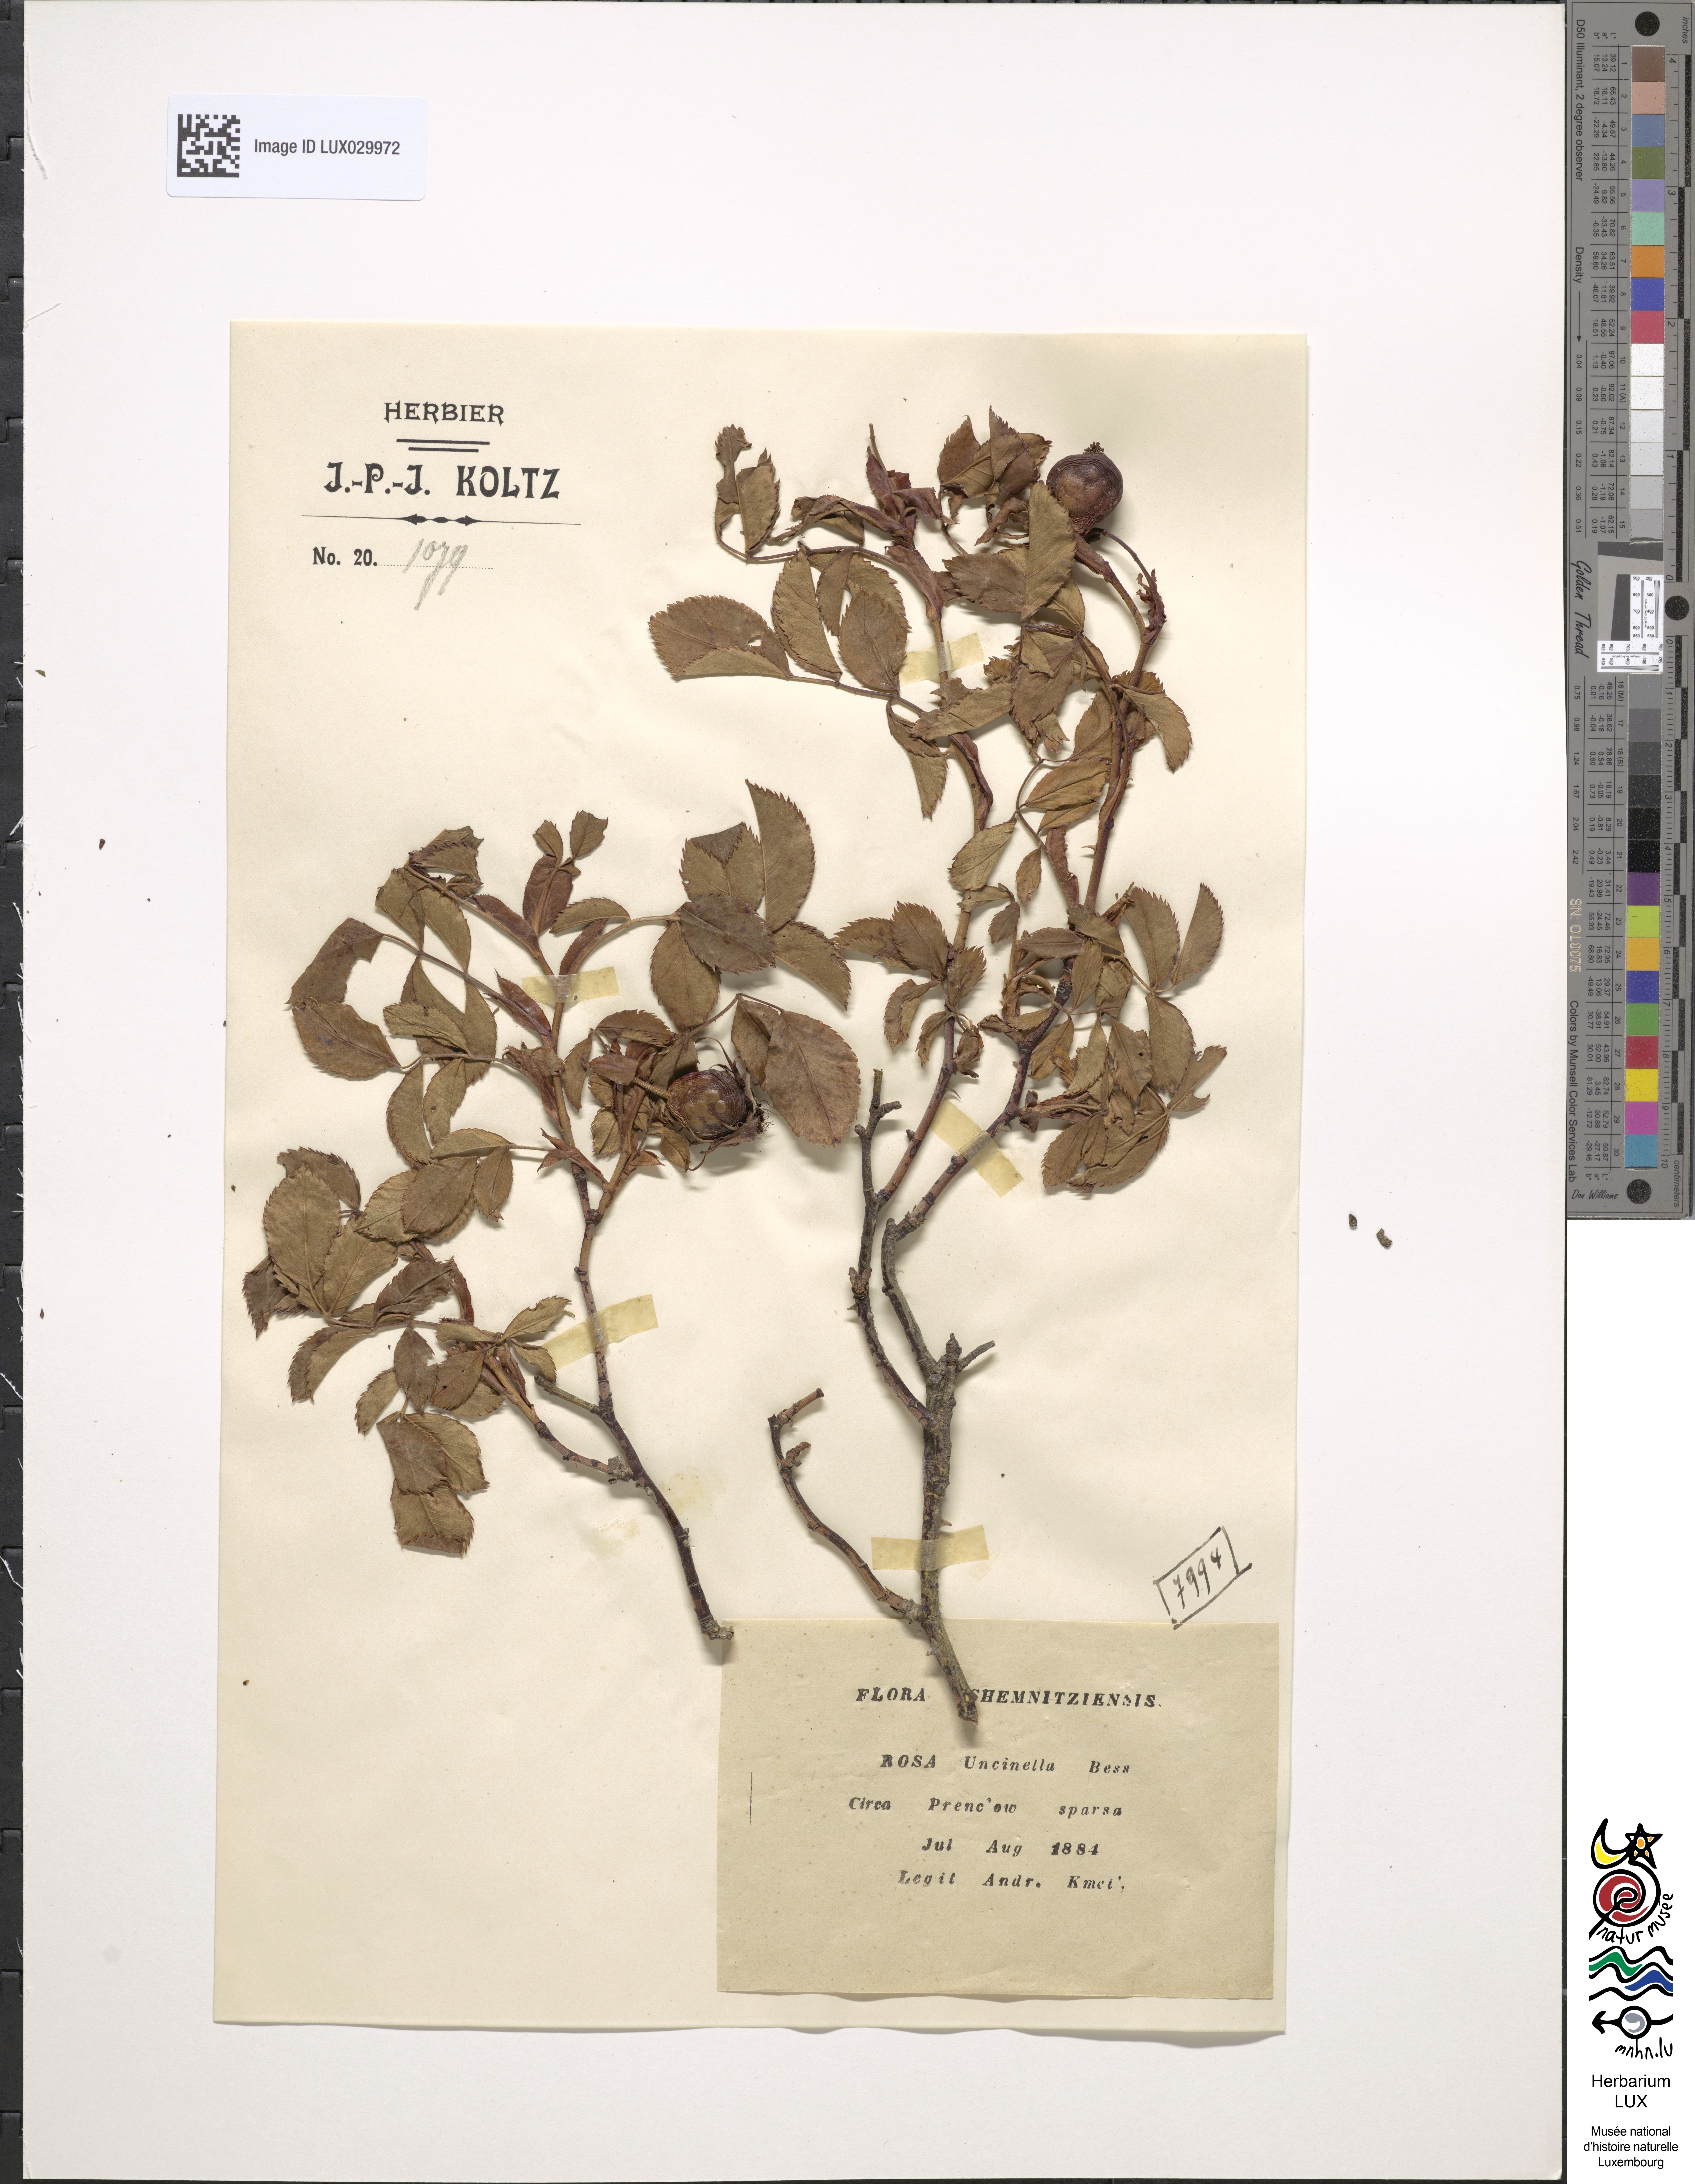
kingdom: Plantae
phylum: Tracheophyta
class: Magnoliopsida
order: Rosales
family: Rosaceae
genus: Rosa
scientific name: Rosa corymbifera
